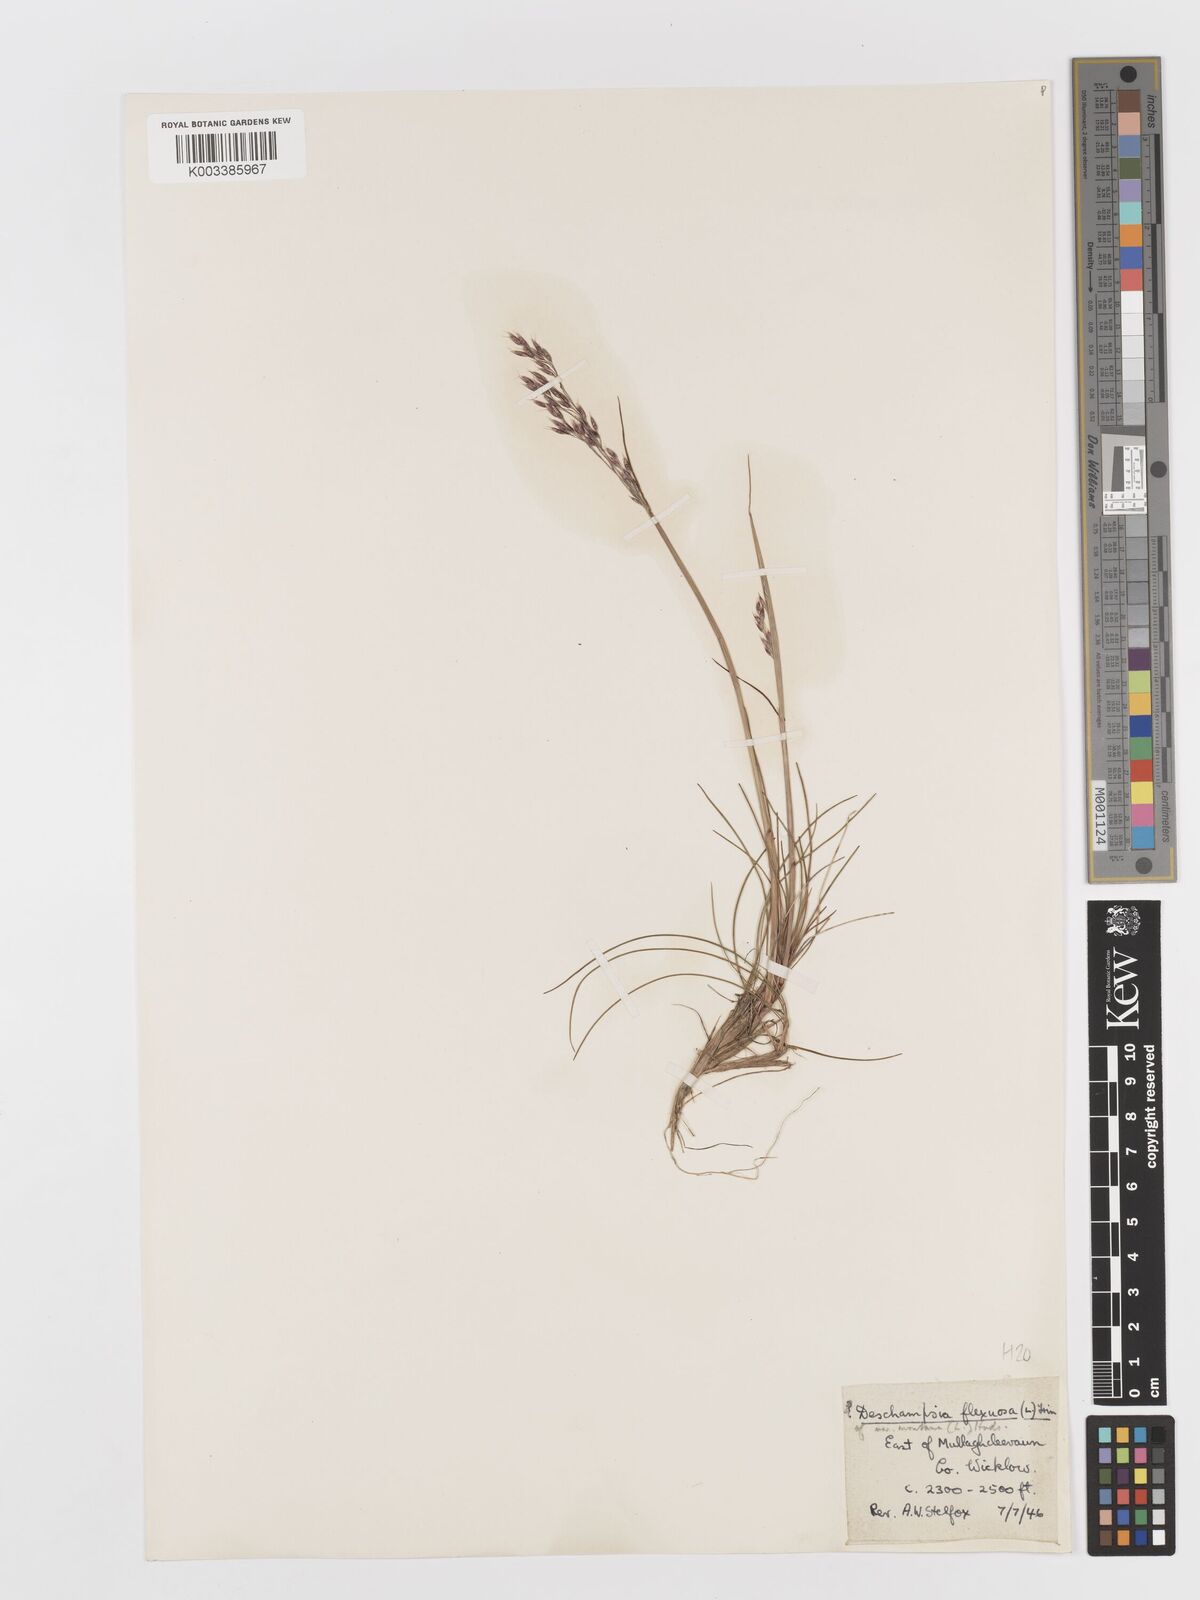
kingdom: Plantae
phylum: Tracheophyta
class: Liliopsida
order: Poales
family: Poaceae
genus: Avenella
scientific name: Avenella flexuosa
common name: Wavy hairgrass
